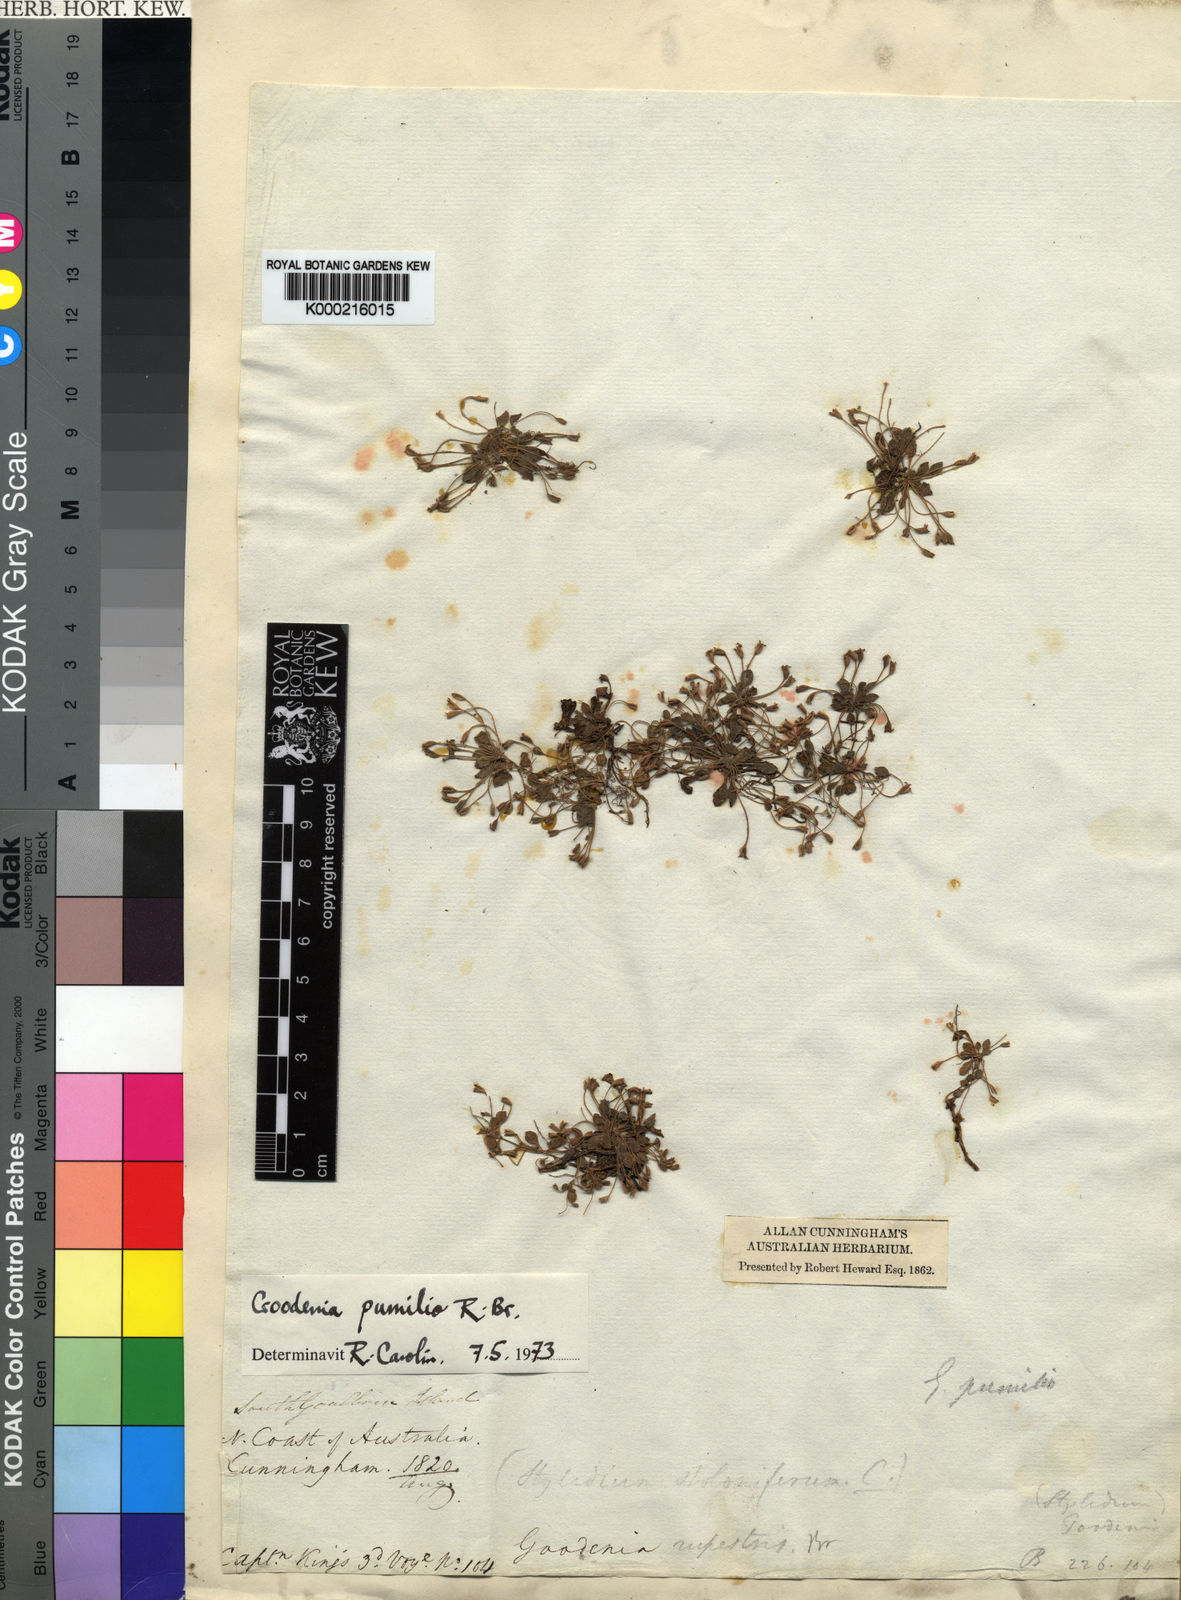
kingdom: Plantae
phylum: Tracheophyta
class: Magnoliopsida
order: Asterales
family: Goodeniaceae
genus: Goodenia
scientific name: Goodenia pumilio
